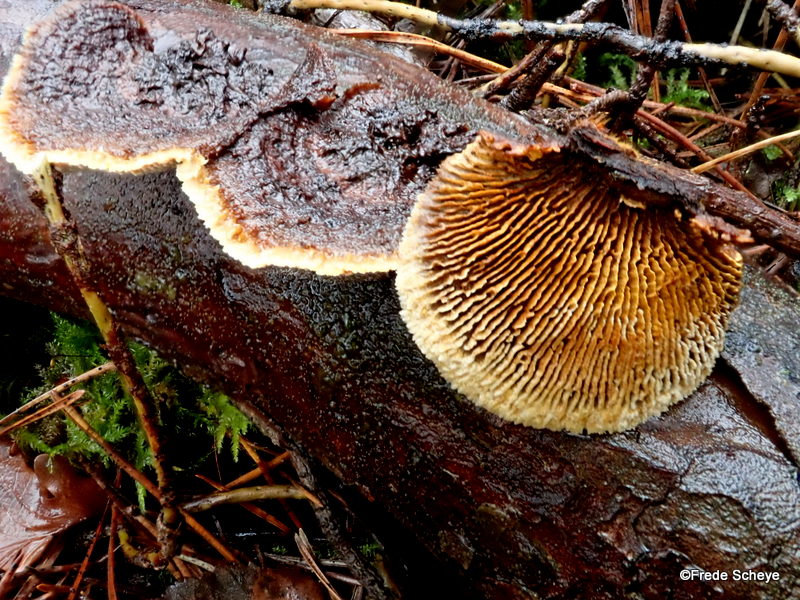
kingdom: Fungi
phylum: Basidiomycota
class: Agaricomycetes
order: Gloeophyllales
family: Gloeophyllaceae
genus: Gloeophyllum
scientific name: Gloeophyllum sepiarium
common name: fyrre-korkhat
